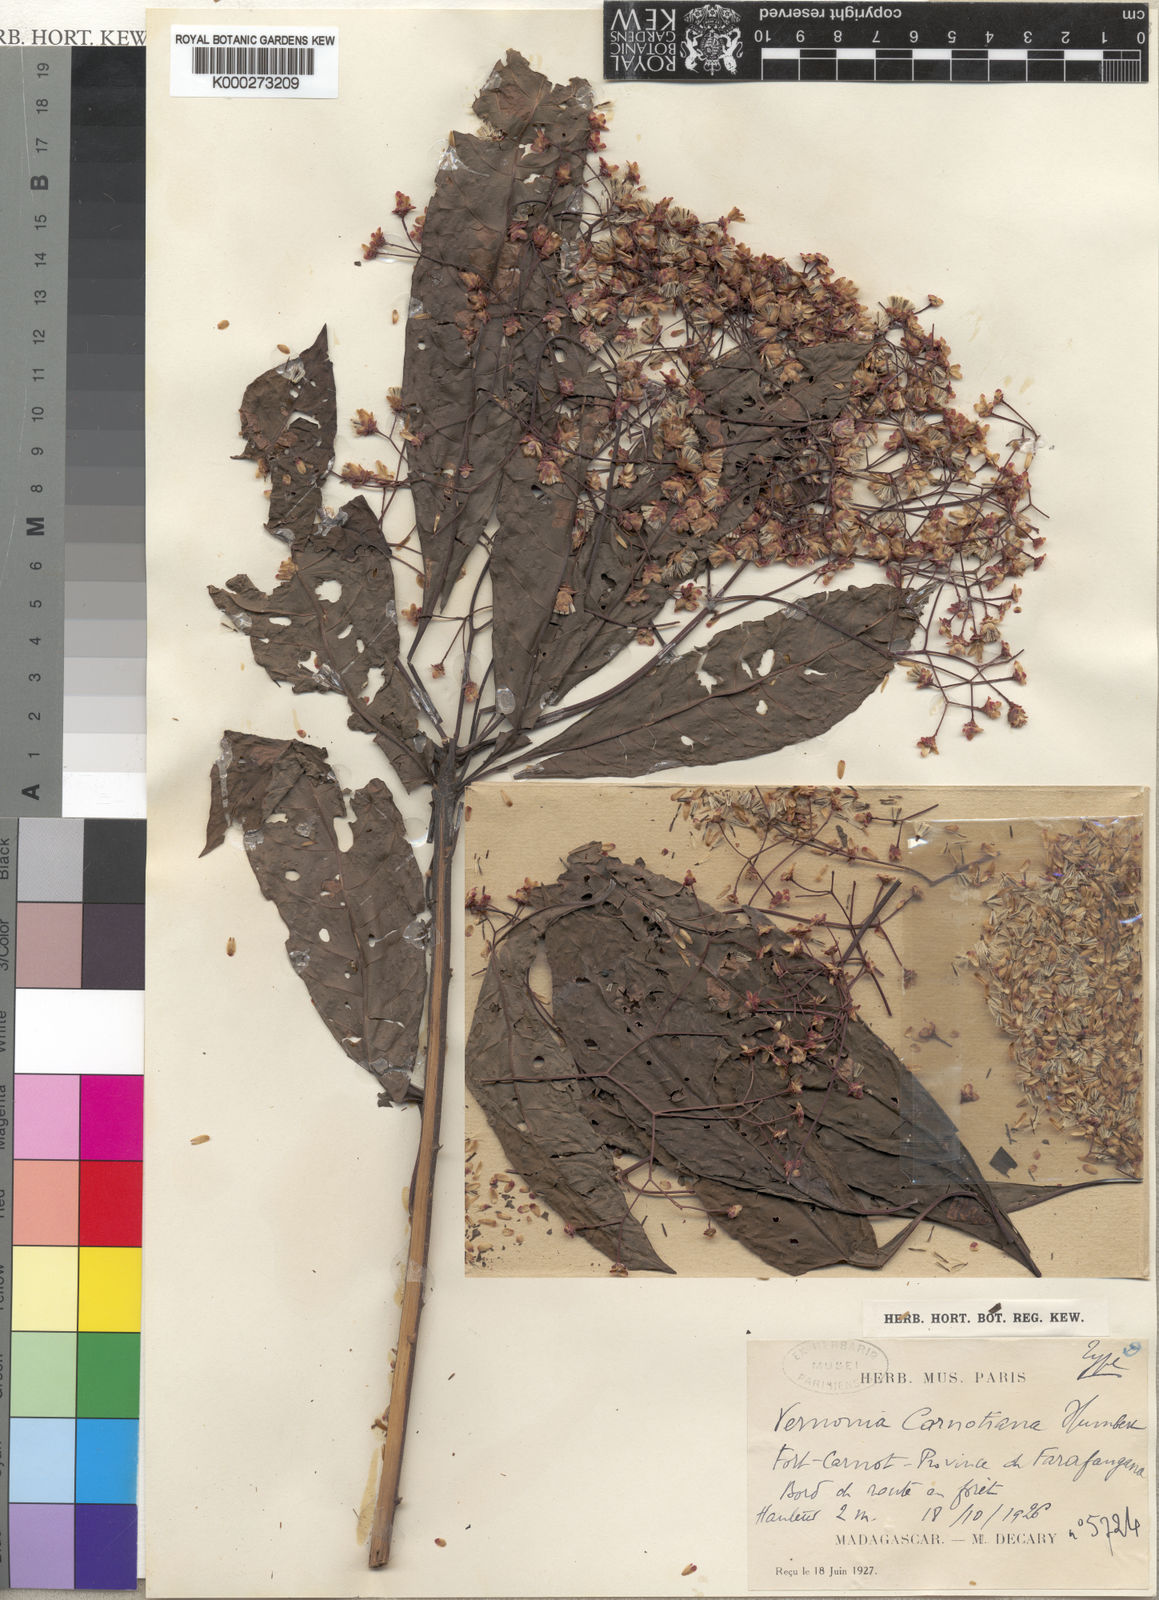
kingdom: Plantae
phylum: Tracheophyta
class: Magnoliopsida
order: Asterales
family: Asteraceae
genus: Vernonia
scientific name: Vernonia carnotiana
